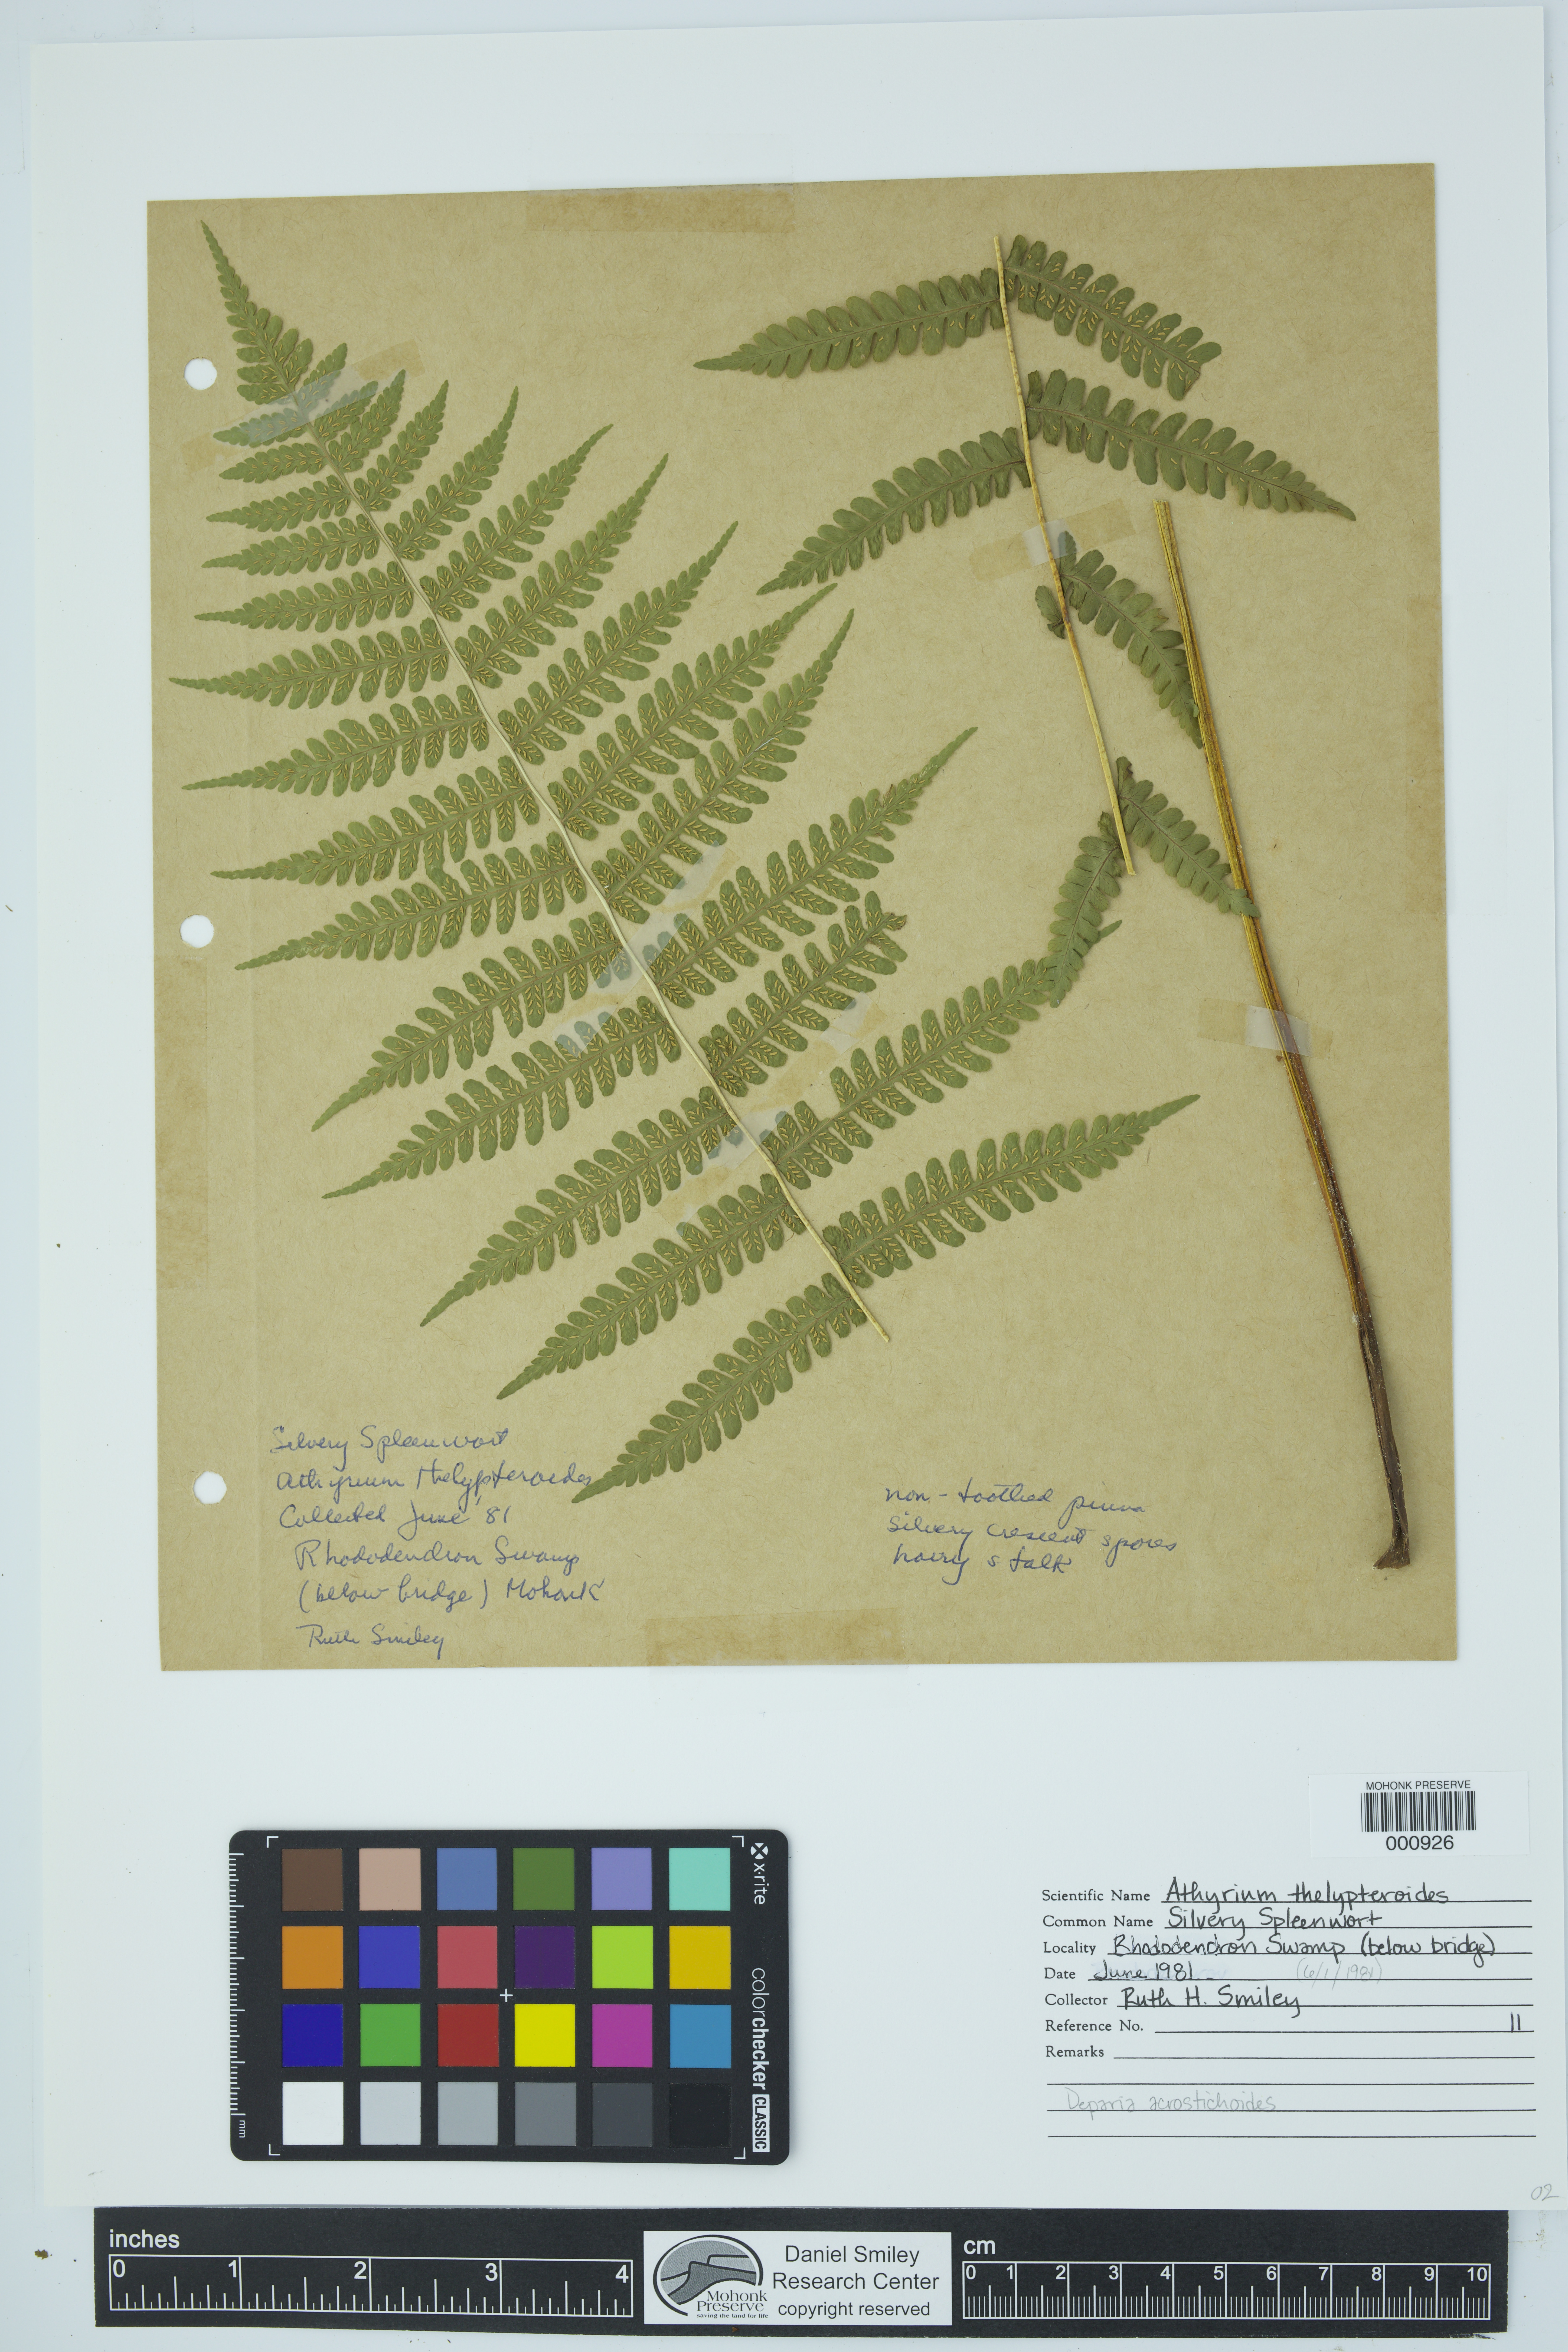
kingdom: Plantae
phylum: Tracheophyta
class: Polypodiopsida
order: Polypodiales
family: Athyriaceae
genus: Deparia
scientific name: Deparia acrostichoides
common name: Silver false spleenwort
